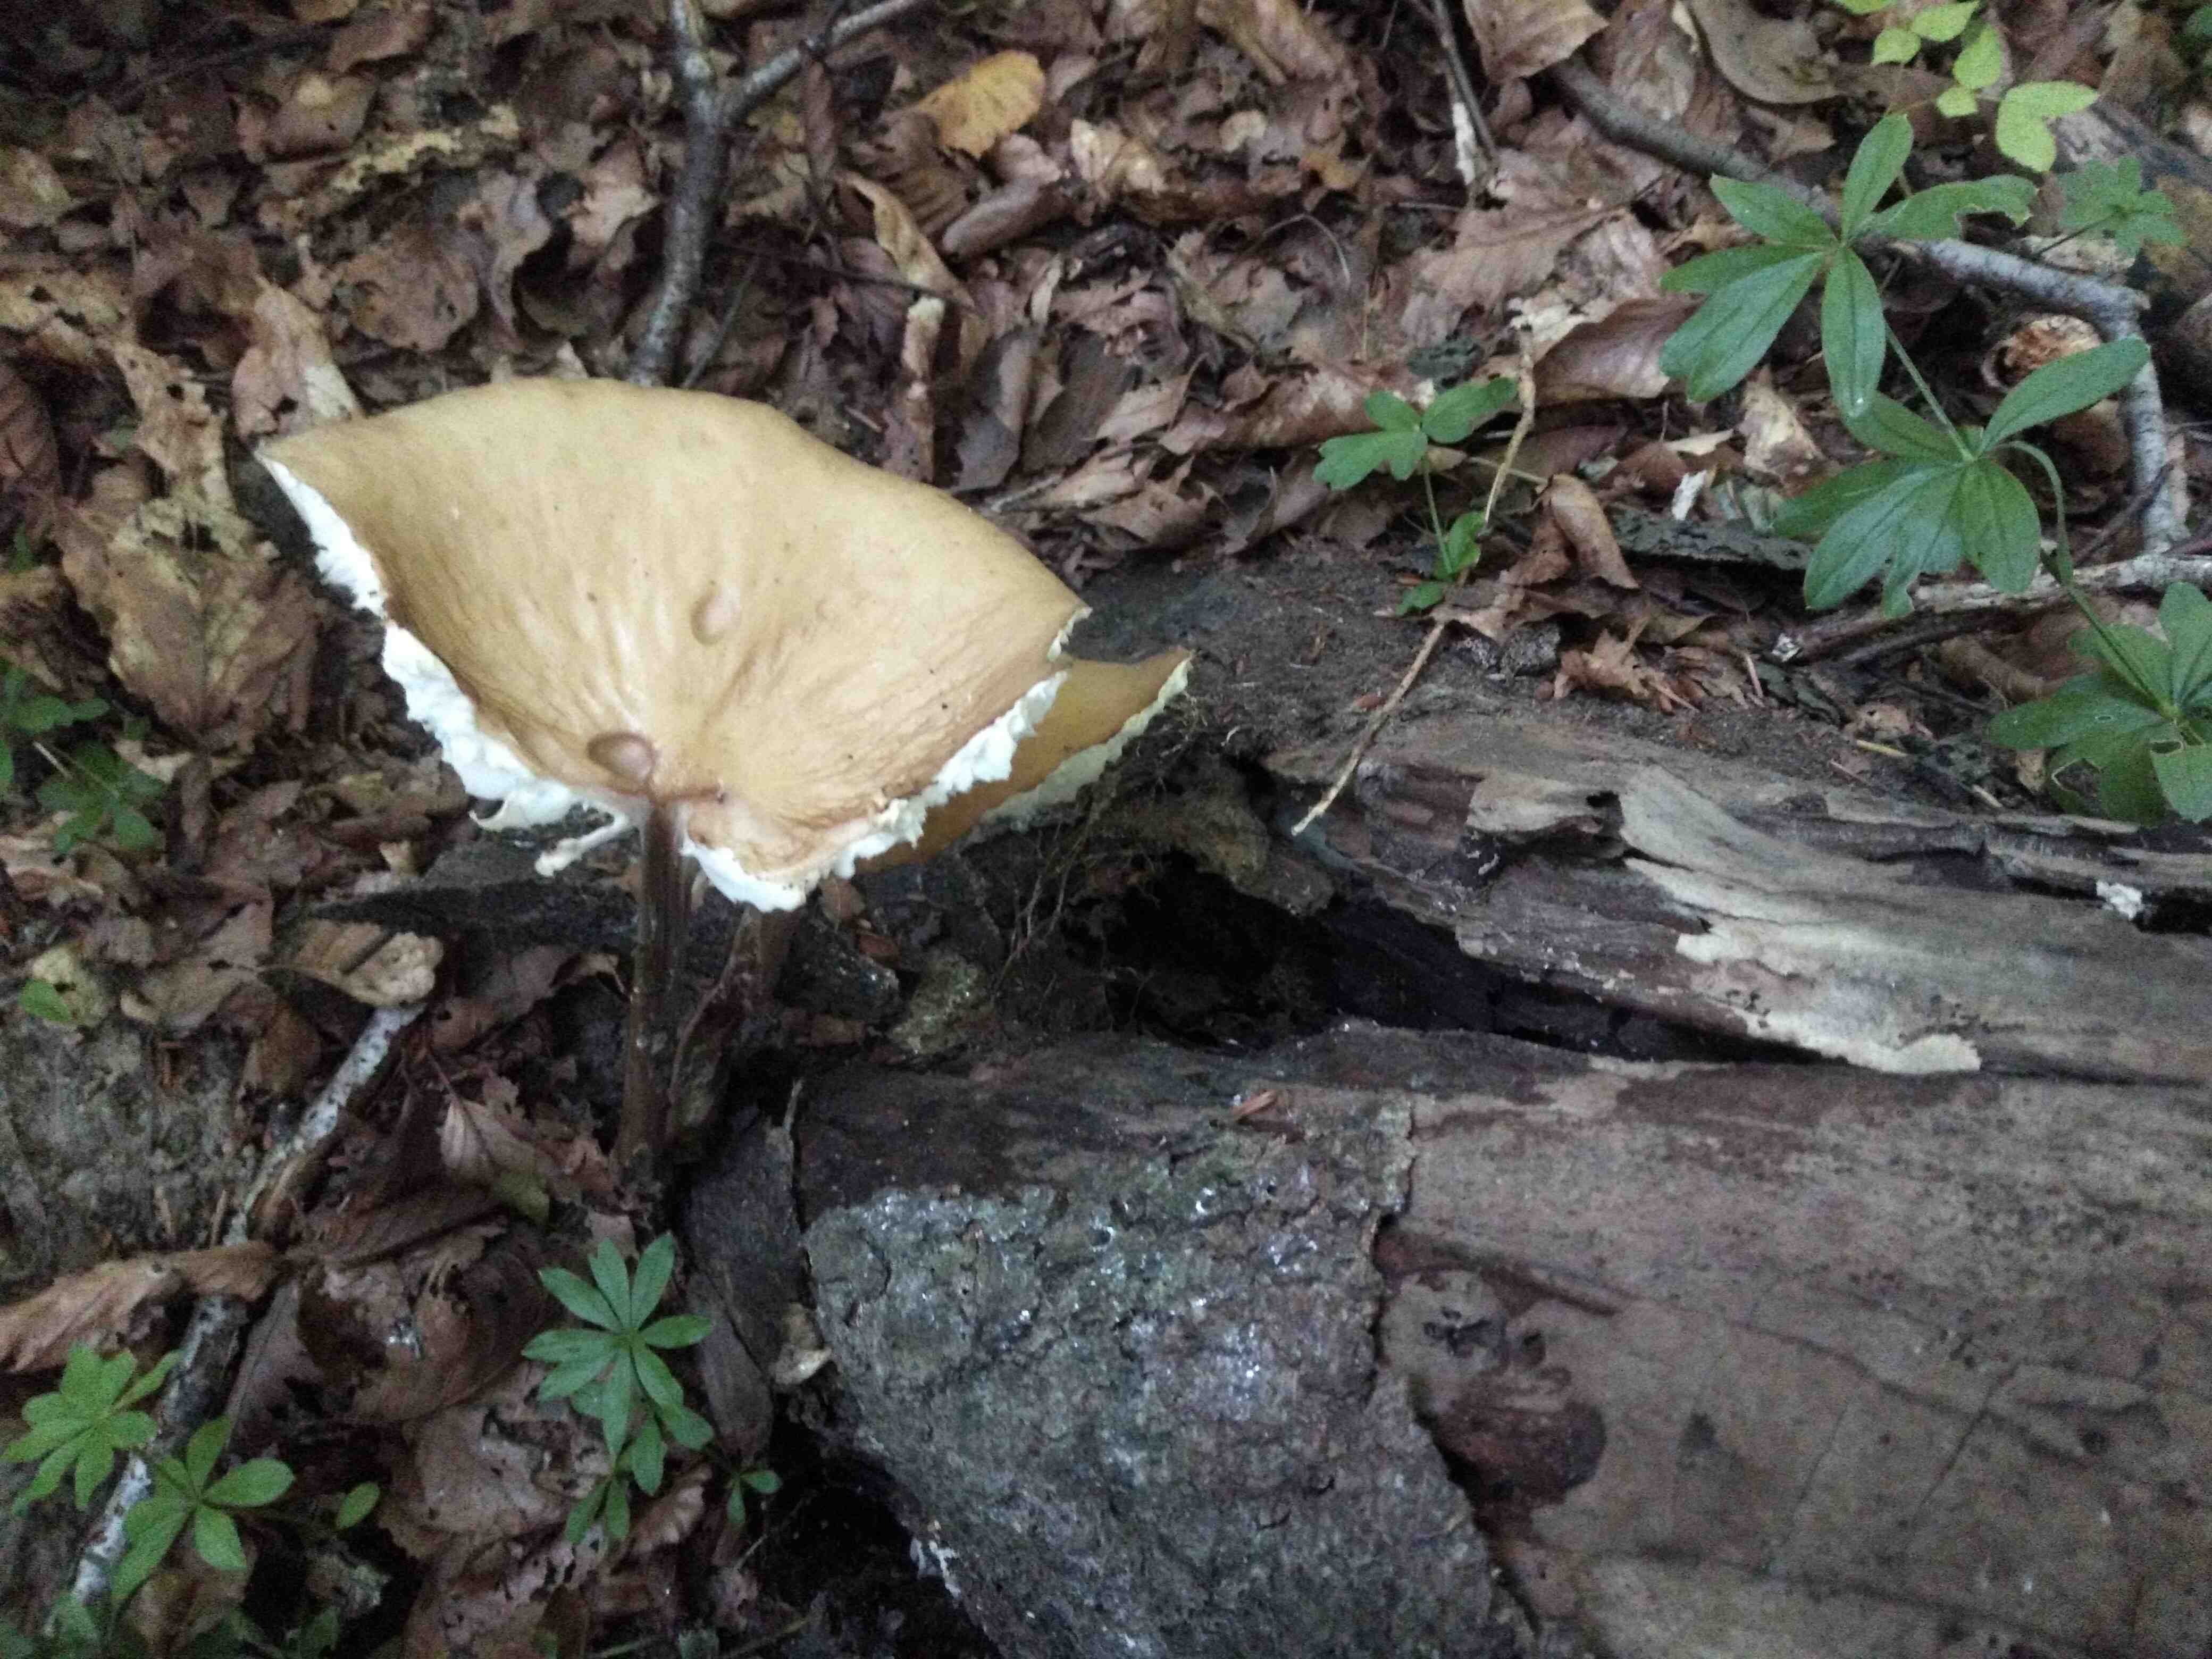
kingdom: Fungi
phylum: Basidiomycota
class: Agaricomycetes
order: Agaricales
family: Physalacriaceae
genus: Hymenopellis
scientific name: Hymenopellis radicata
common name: almindelig pælerodshat
